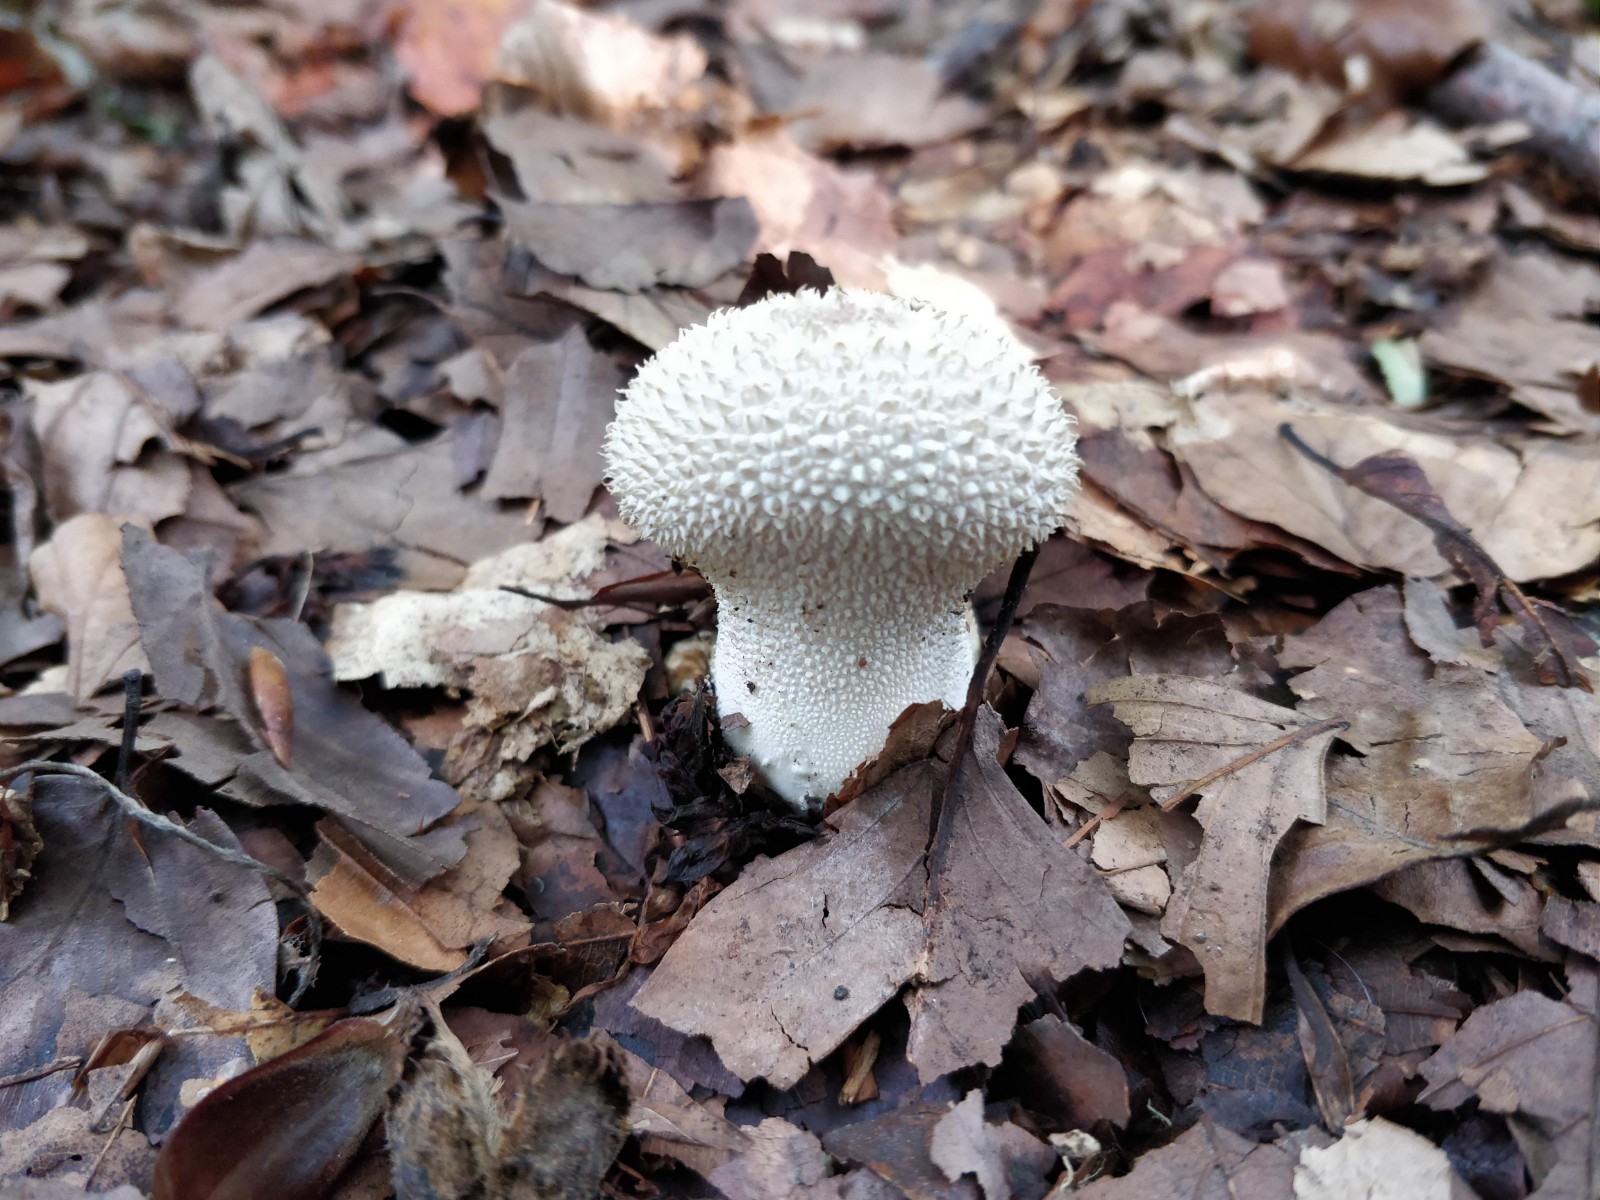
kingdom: Fungi
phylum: Basidiomycota
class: Agaricomycetes
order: Agaricales
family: Lycoperdaceae
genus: Lycoperdon
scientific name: Lycoperdon perlatum
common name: krystal-støvbold
